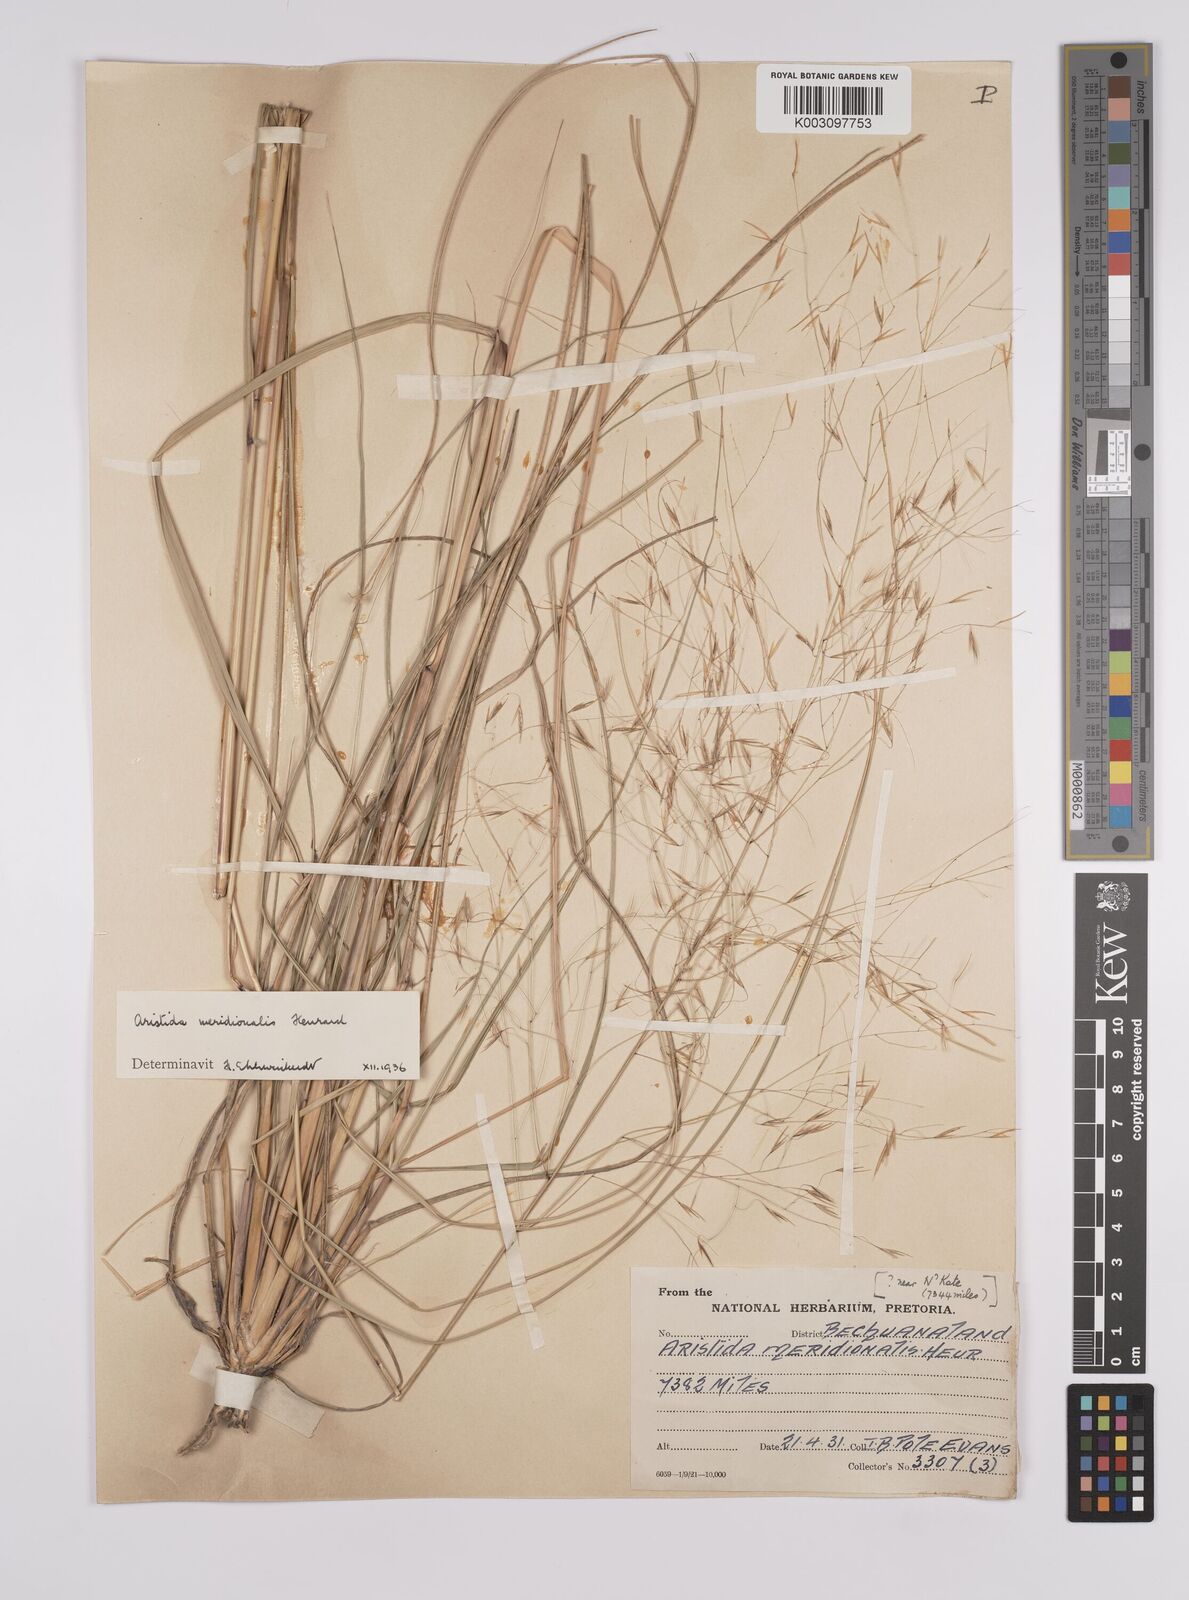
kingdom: Plantae
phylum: Tracheophyta
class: Liliopsida
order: Poales
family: Poaceae
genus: Aristida
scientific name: Aristida meridionalis
